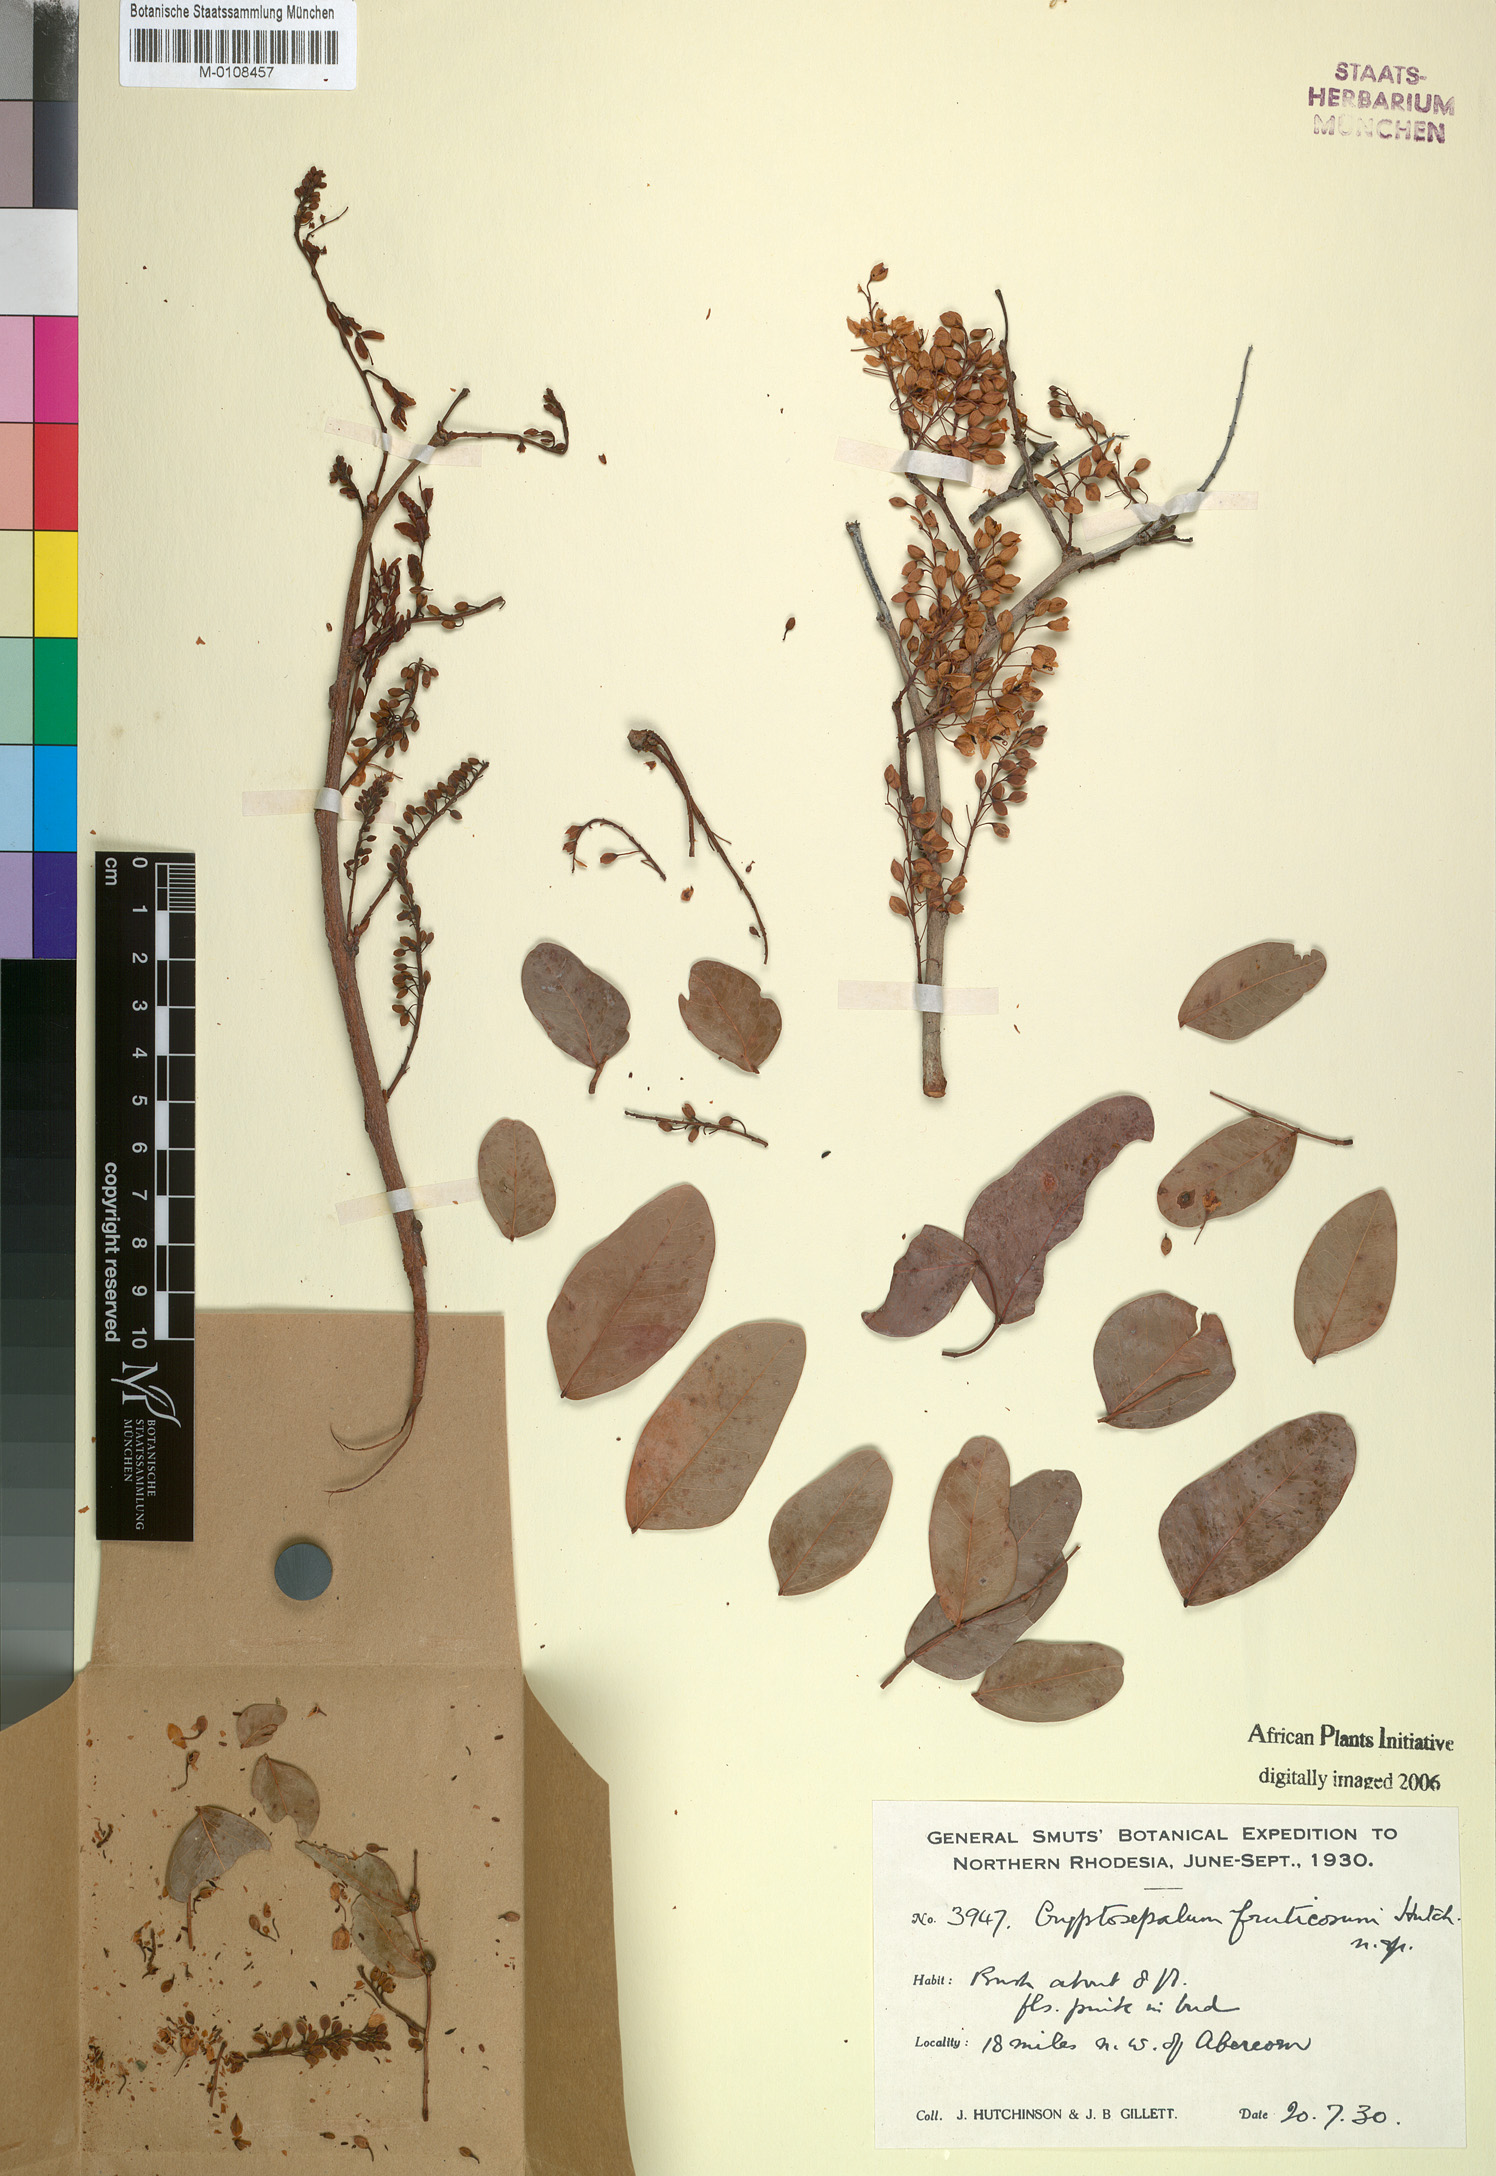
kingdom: Plantae
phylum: Tracheophyta
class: Magnoliopsida
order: Fabales
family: Fabaceae
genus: Cryptosepalum
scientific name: Cryptosepalum exfoliatum
